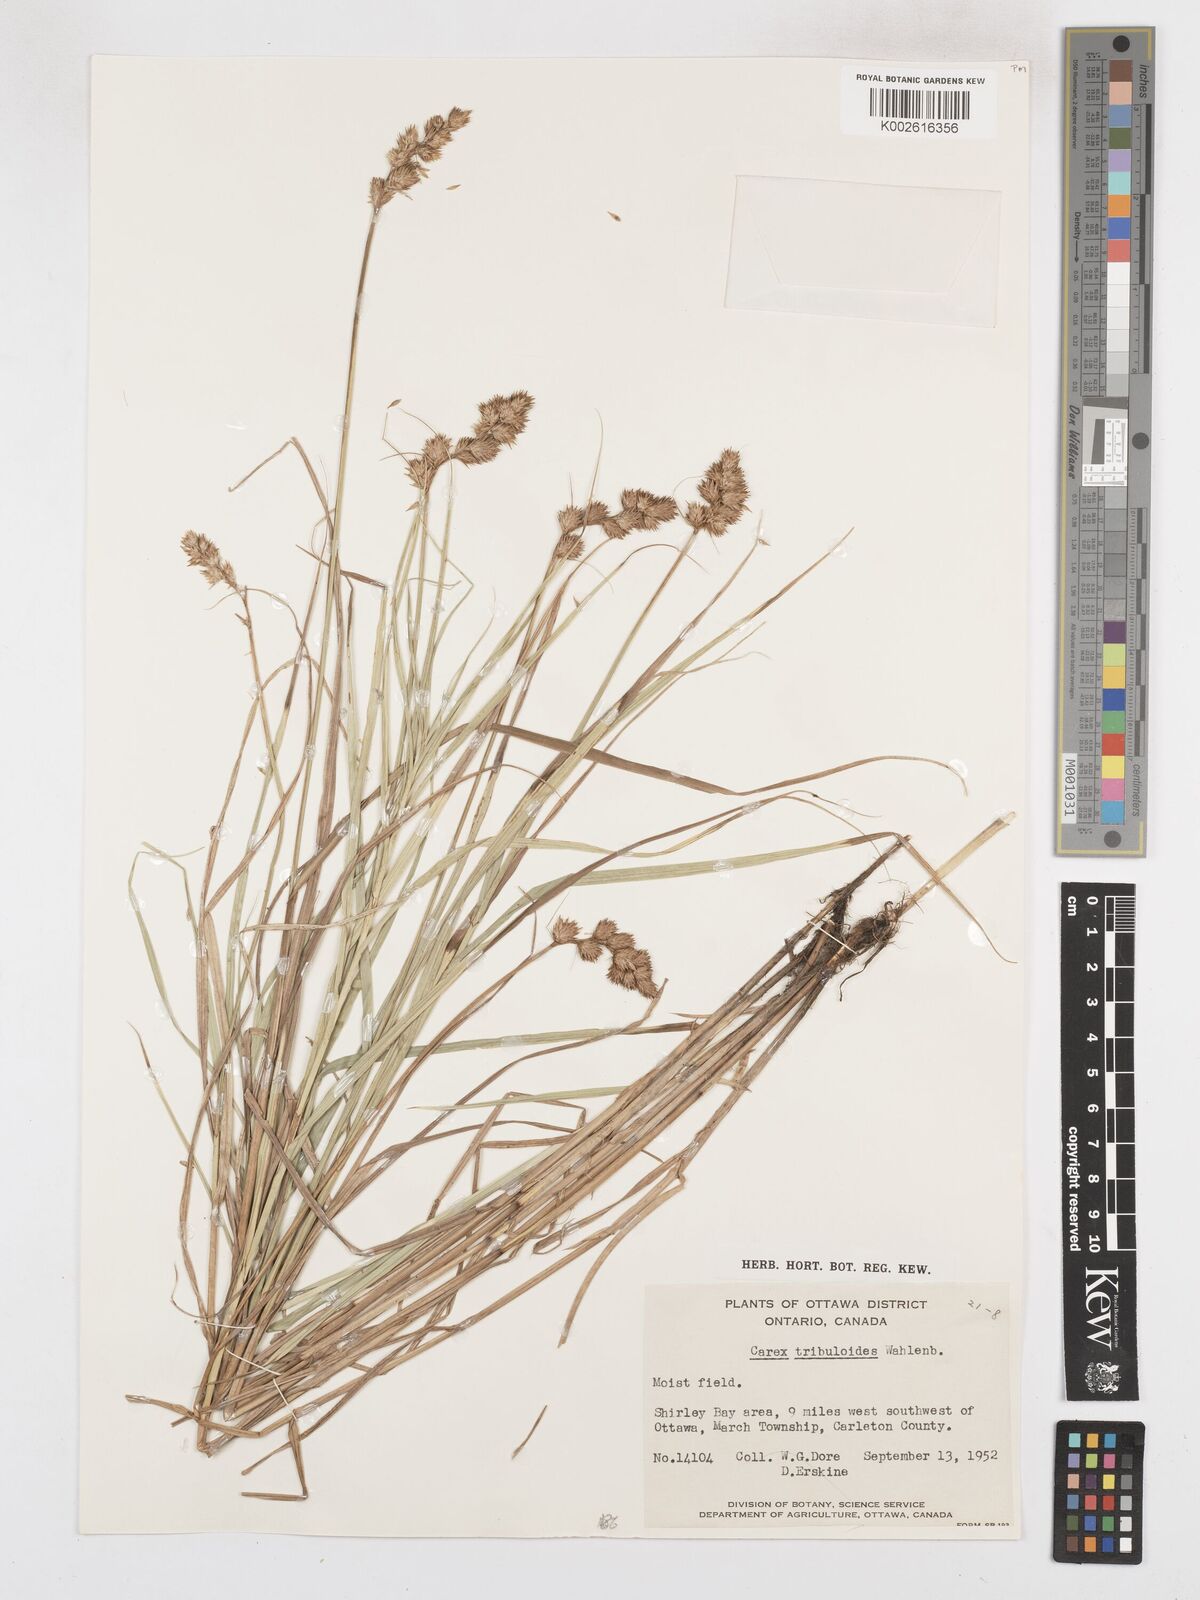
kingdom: Plantae
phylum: Tracheophyta
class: Liliopsida
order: Poales
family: Cyperaceae
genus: Carex
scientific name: Carex tribuloides
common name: Blunt broom sedge
